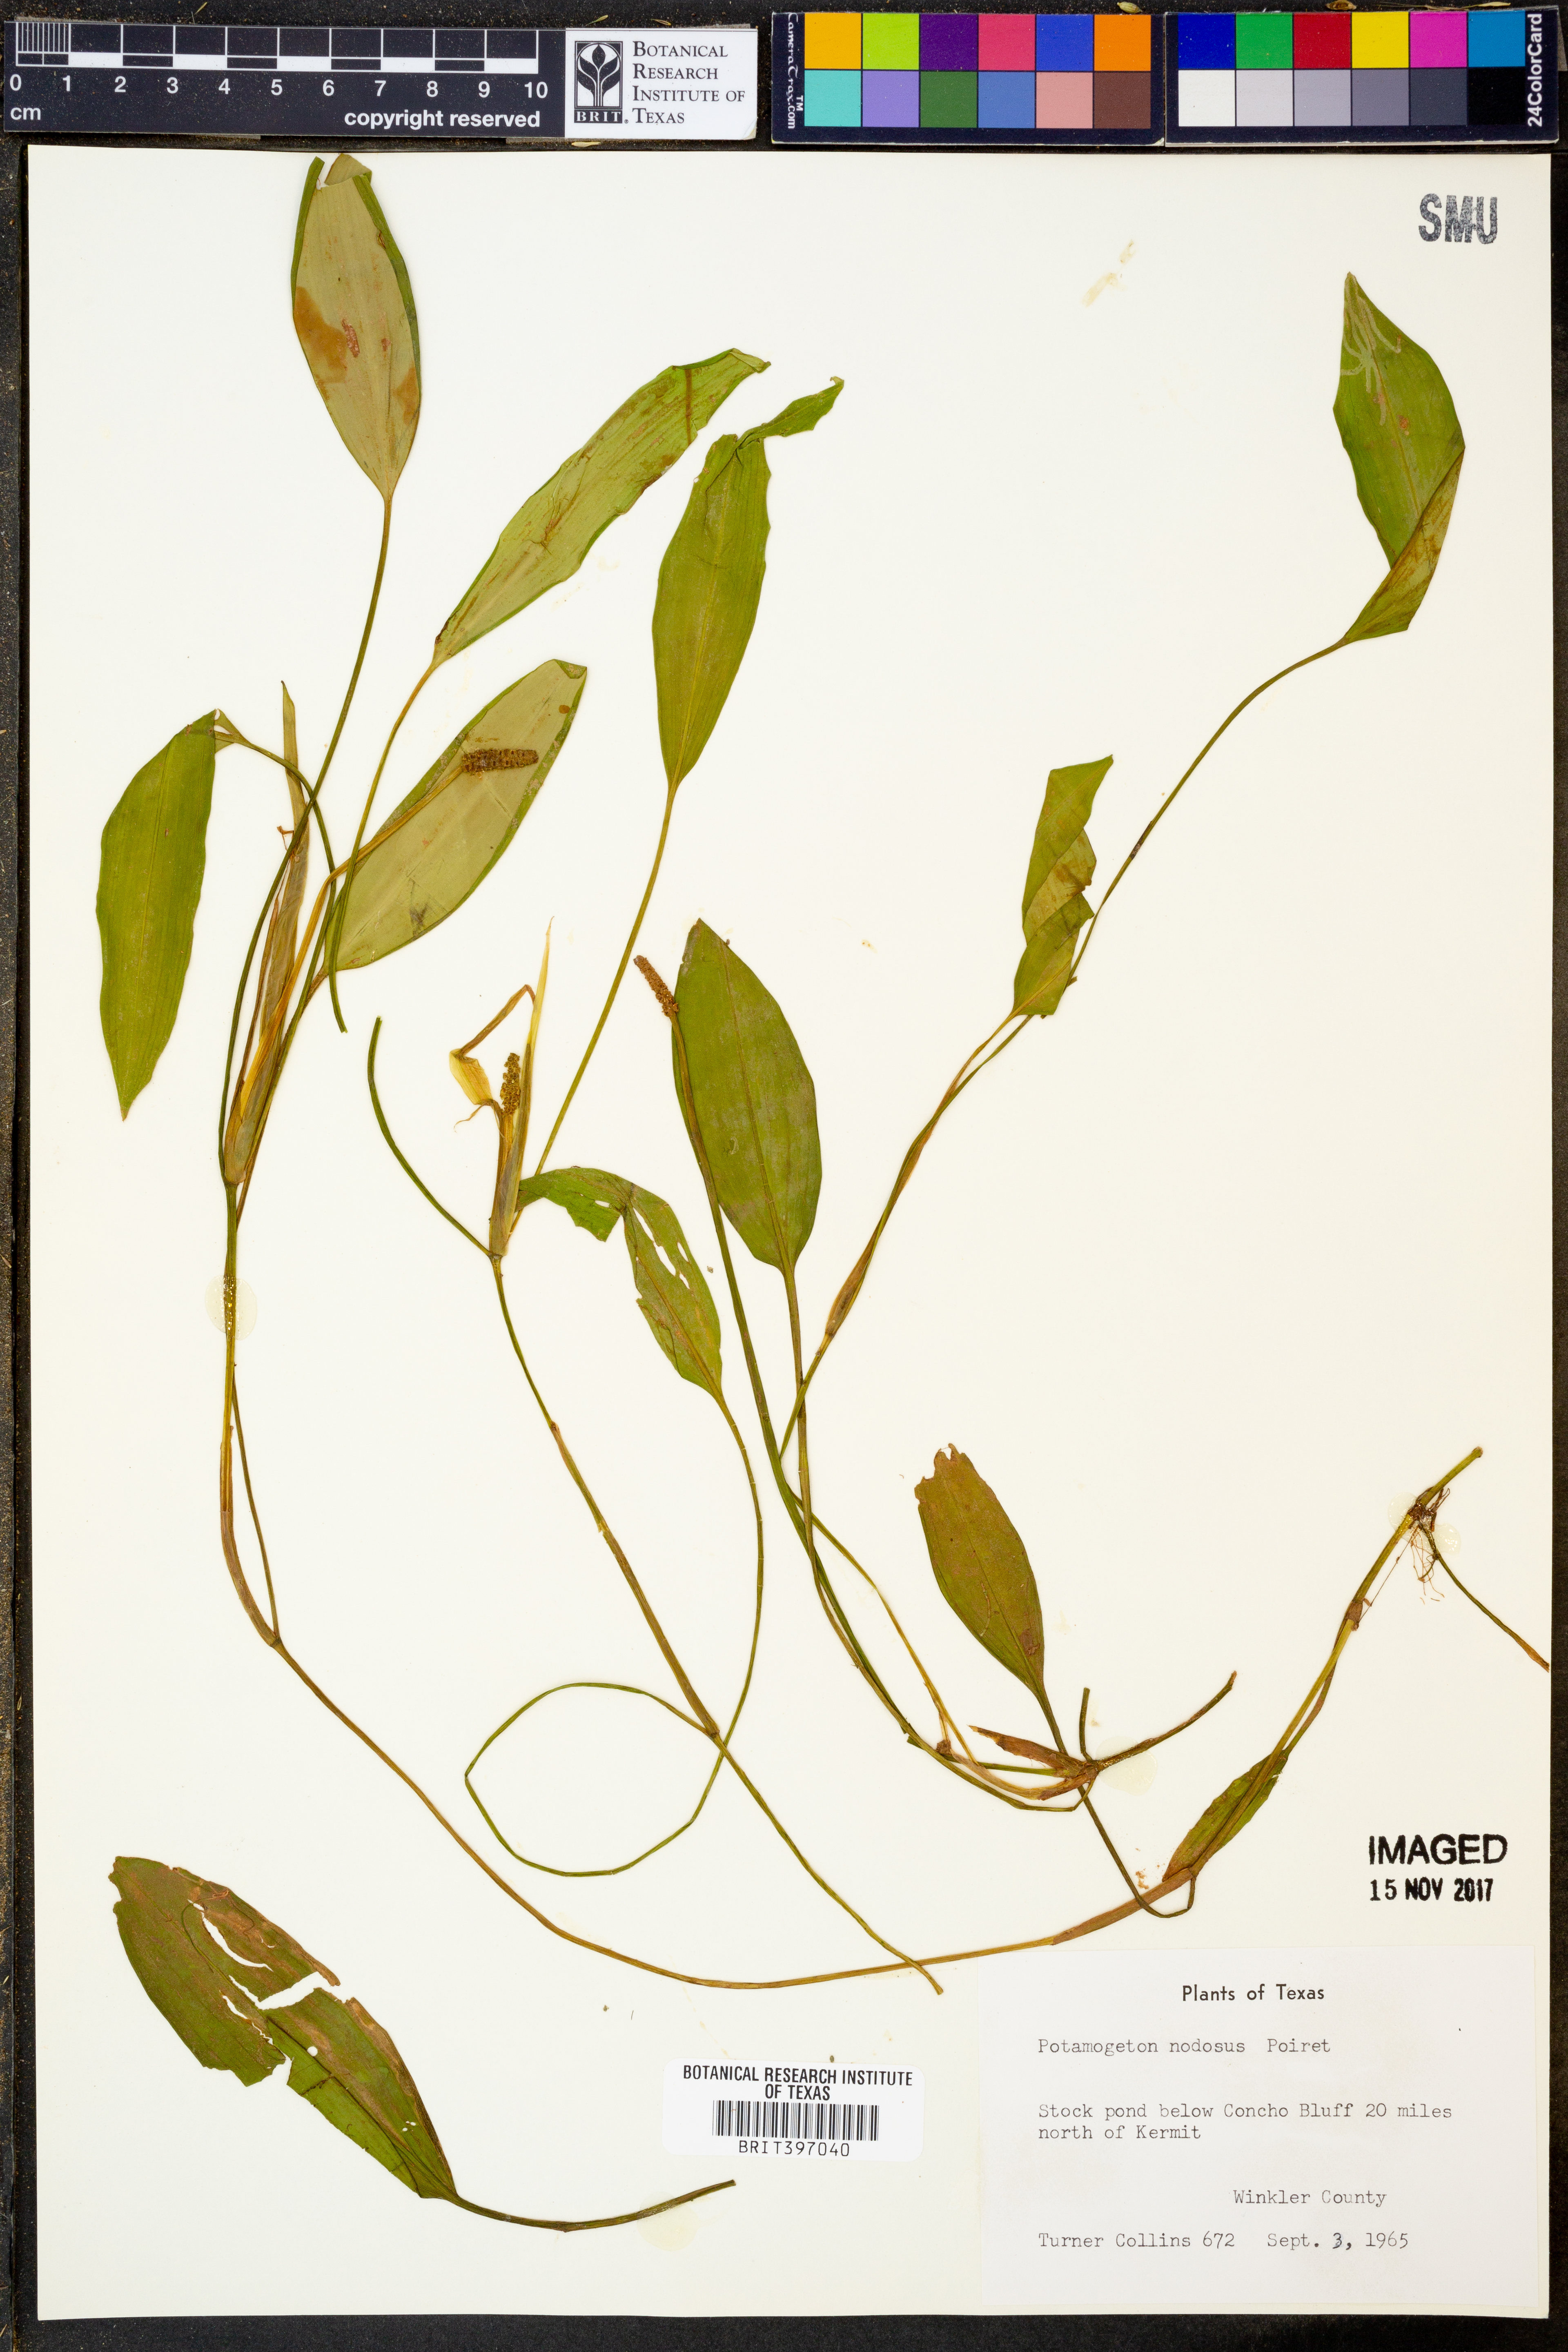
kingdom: Plantae
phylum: Tracheophyta
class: Liliopsida
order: Alismatales
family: Potamogetonaceae
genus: Potamogeton
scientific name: Potamogeton nodosus
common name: Loddon pondweed
